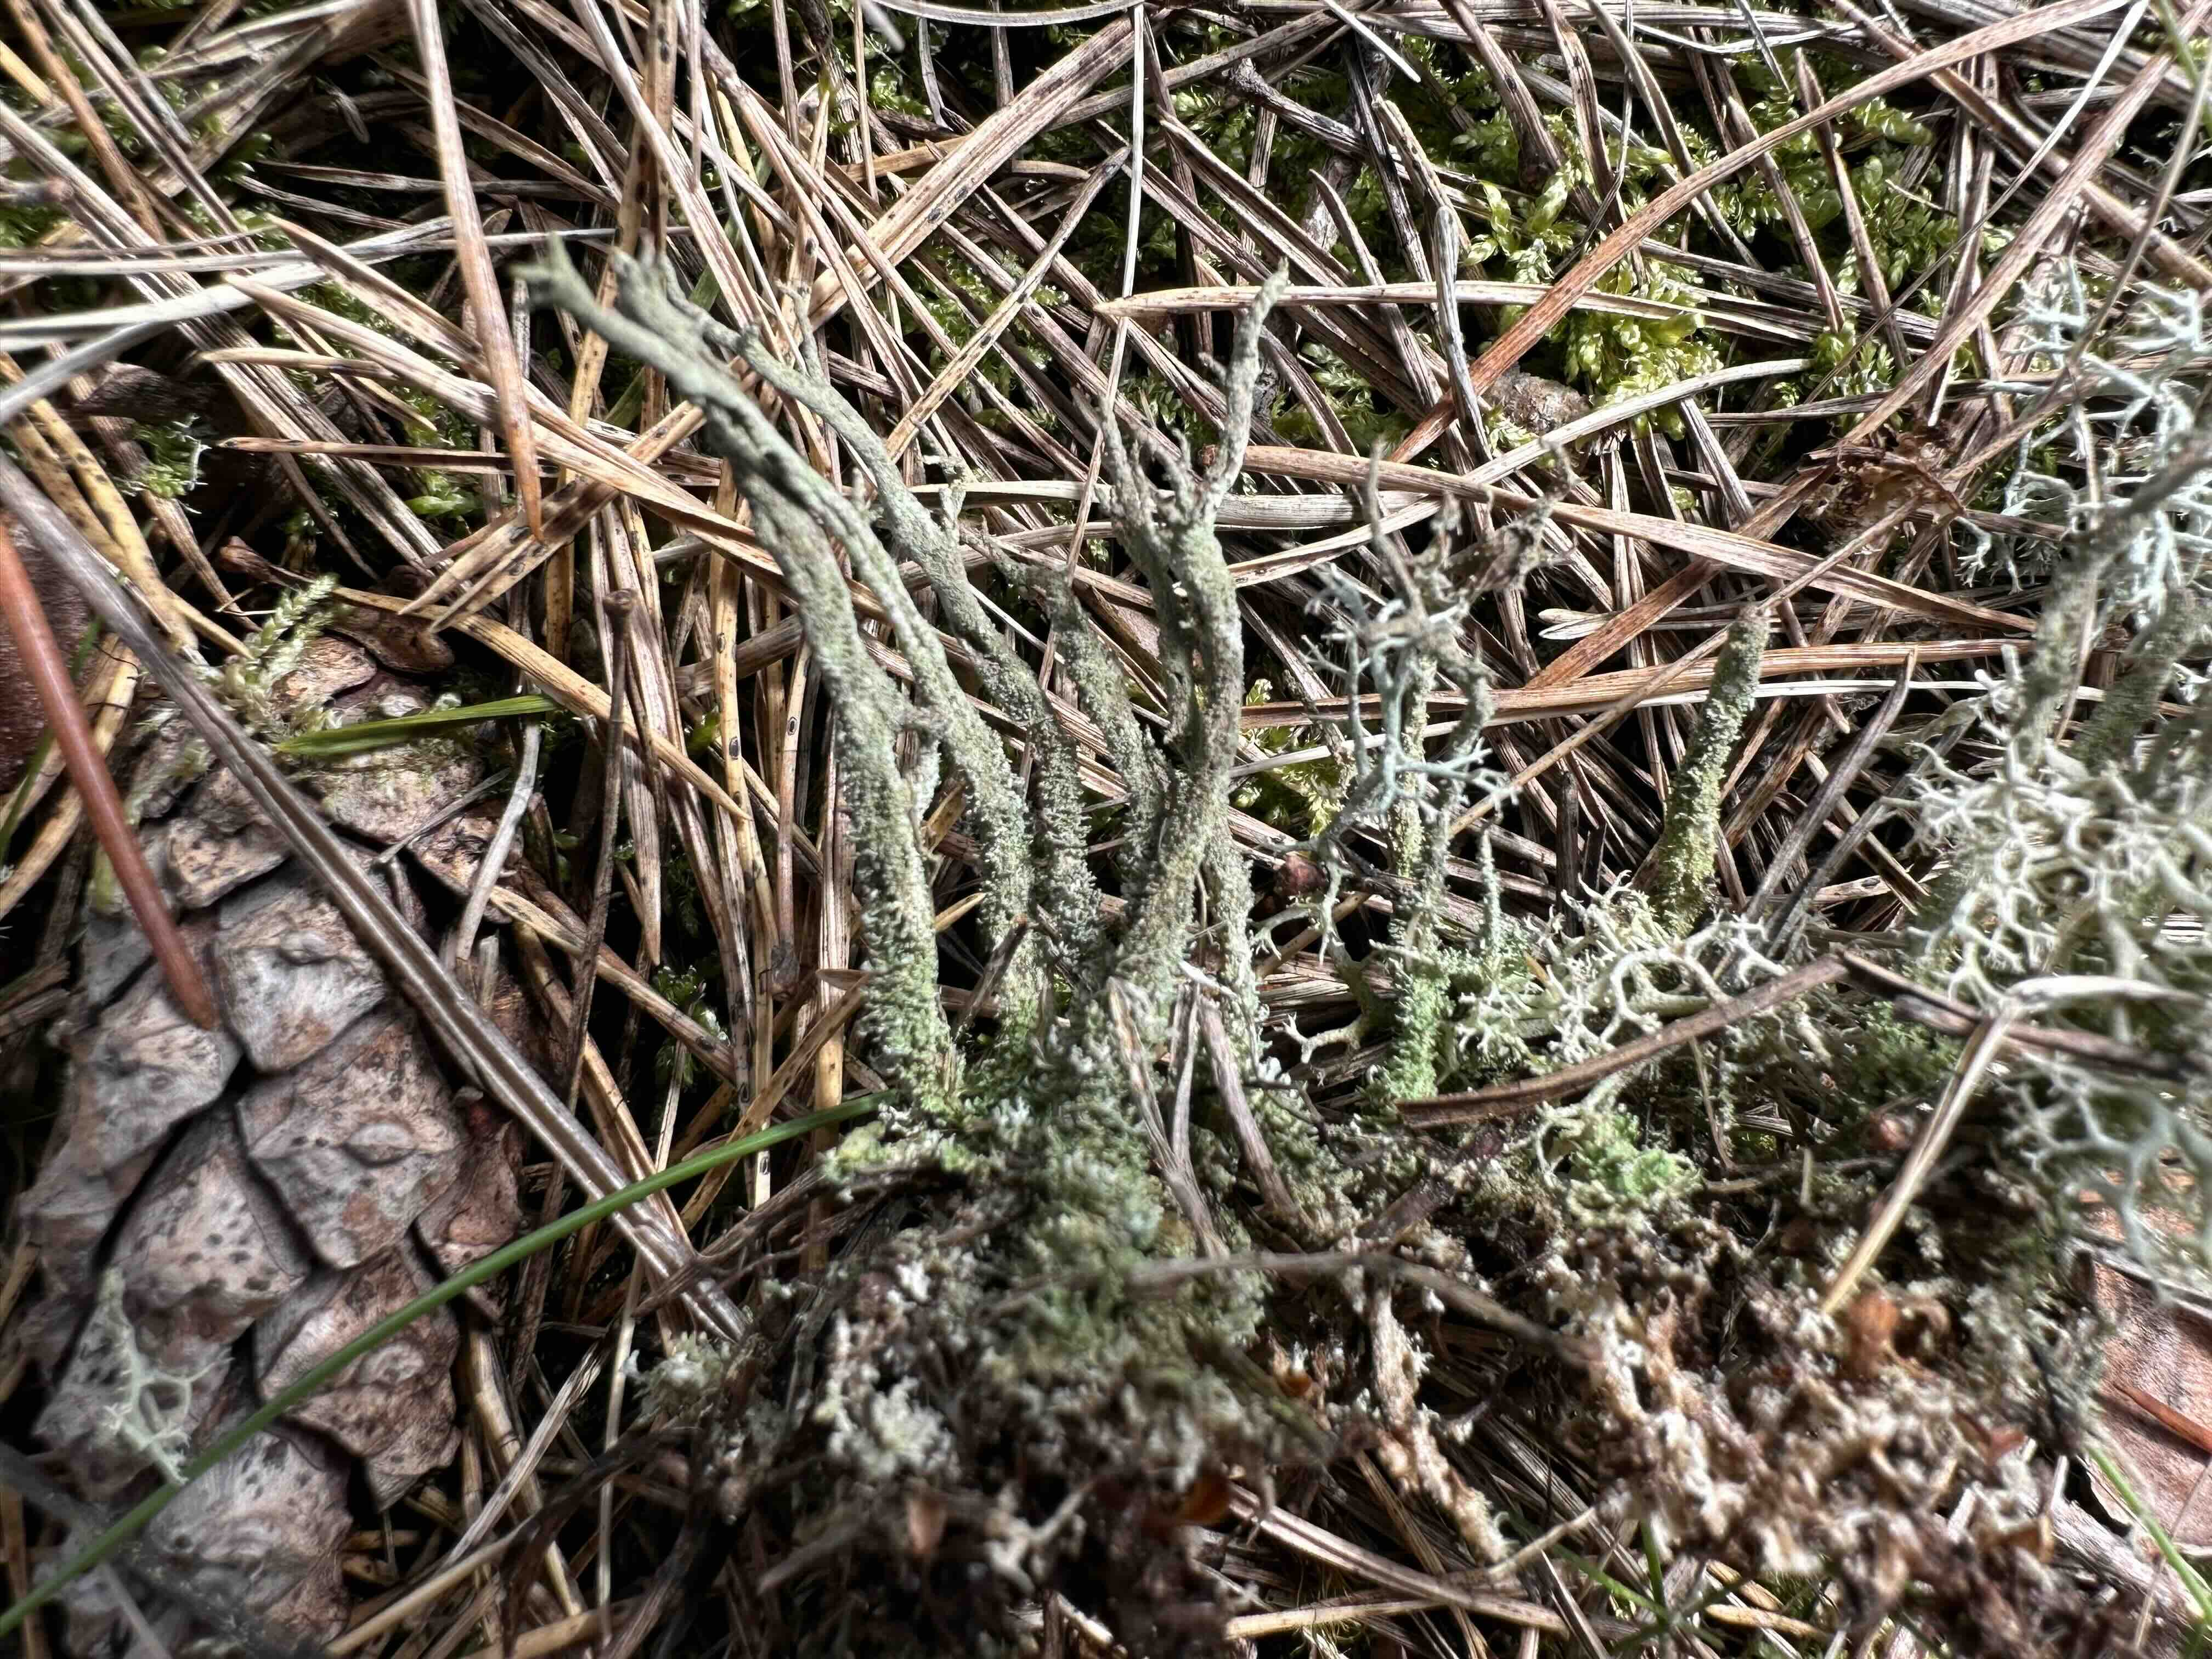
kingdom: Fungi
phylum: Ascomycota
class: Lecanoromycetes
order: Lecanorales
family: Cladoniaceae
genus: Cladonia
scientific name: Cladonia glauca
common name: grågrøn bægerlav
